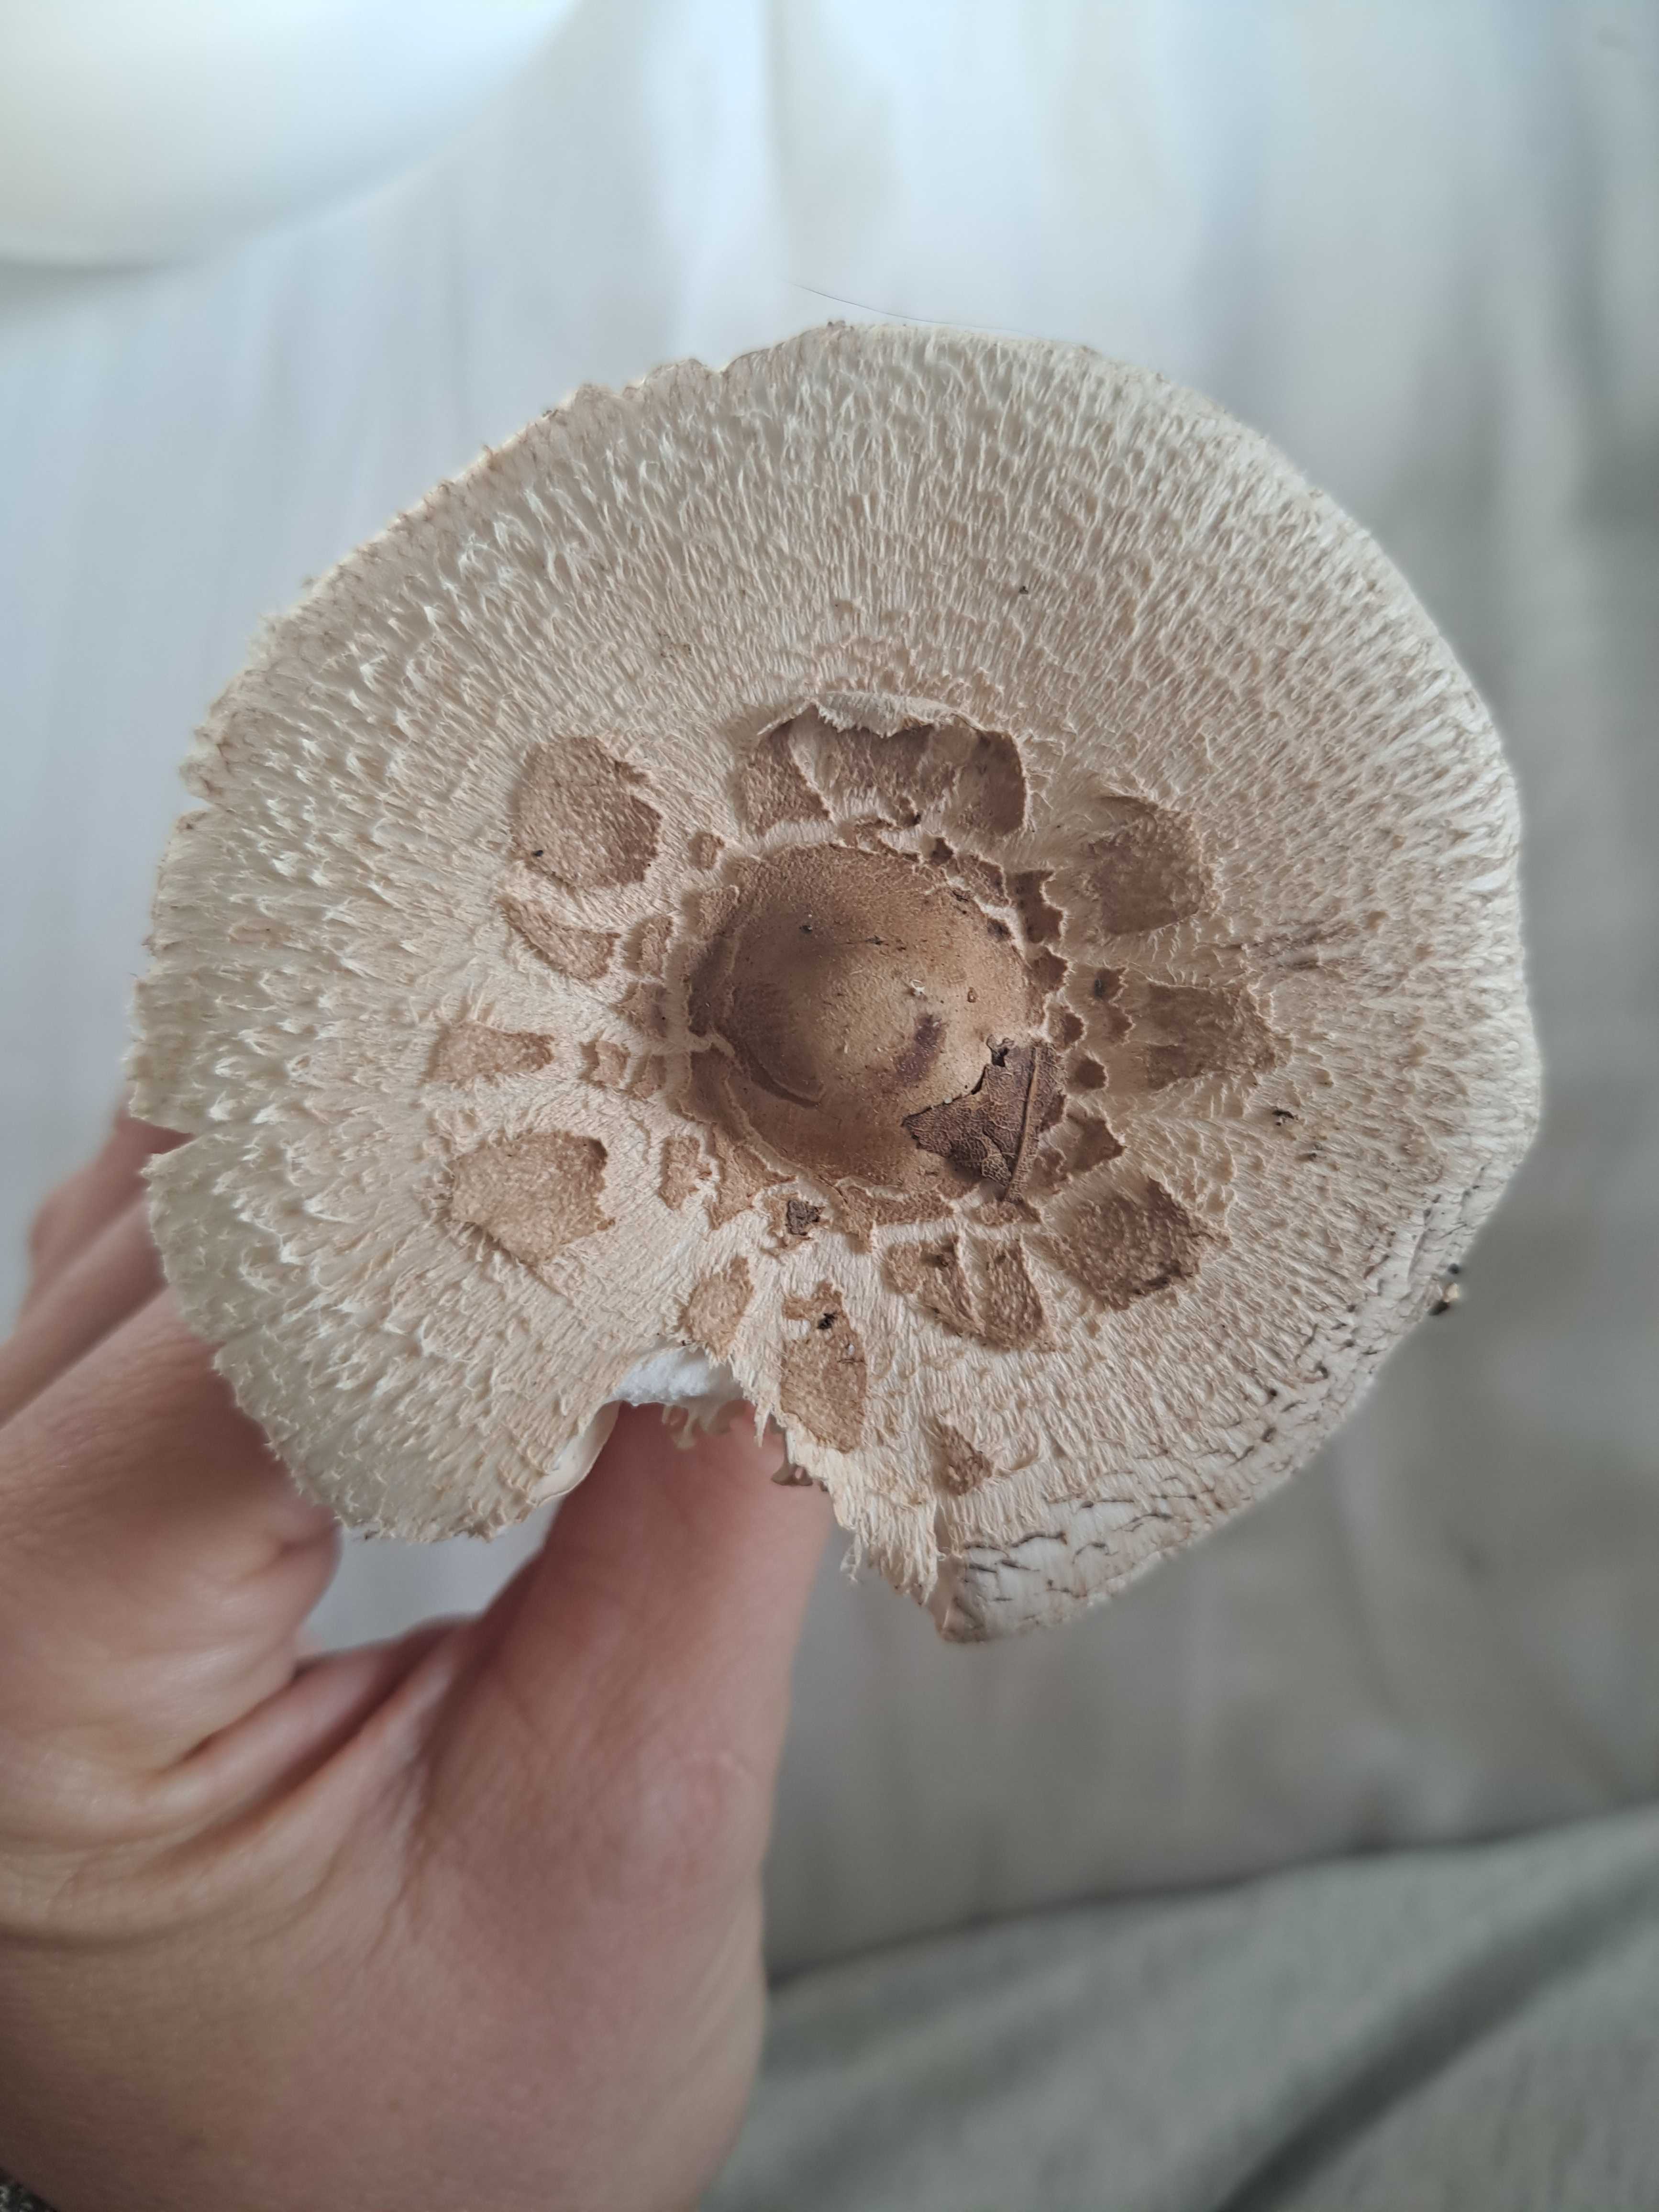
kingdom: Fungi
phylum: Basidiomycota
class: Agaricomycetes
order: Agaricales
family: Agaricaceae
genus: Macrolepiota
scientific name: Macrolepiota mastoidea
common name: puklet kæmpeparasolhat
